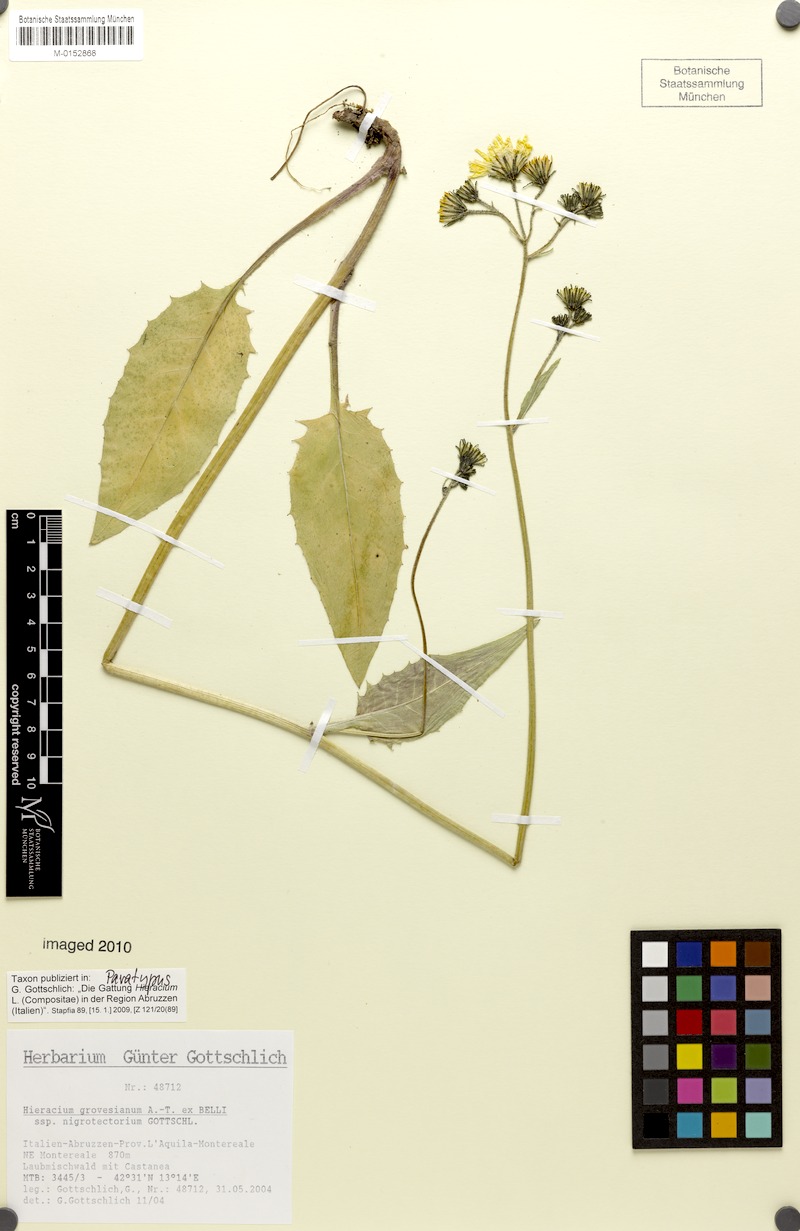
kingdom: Plantae
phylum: Tracheophyta
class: Magnoliopsida
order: Asterales
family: Asteraceae
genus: Hieracium
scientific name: Hieracium grovesianum
